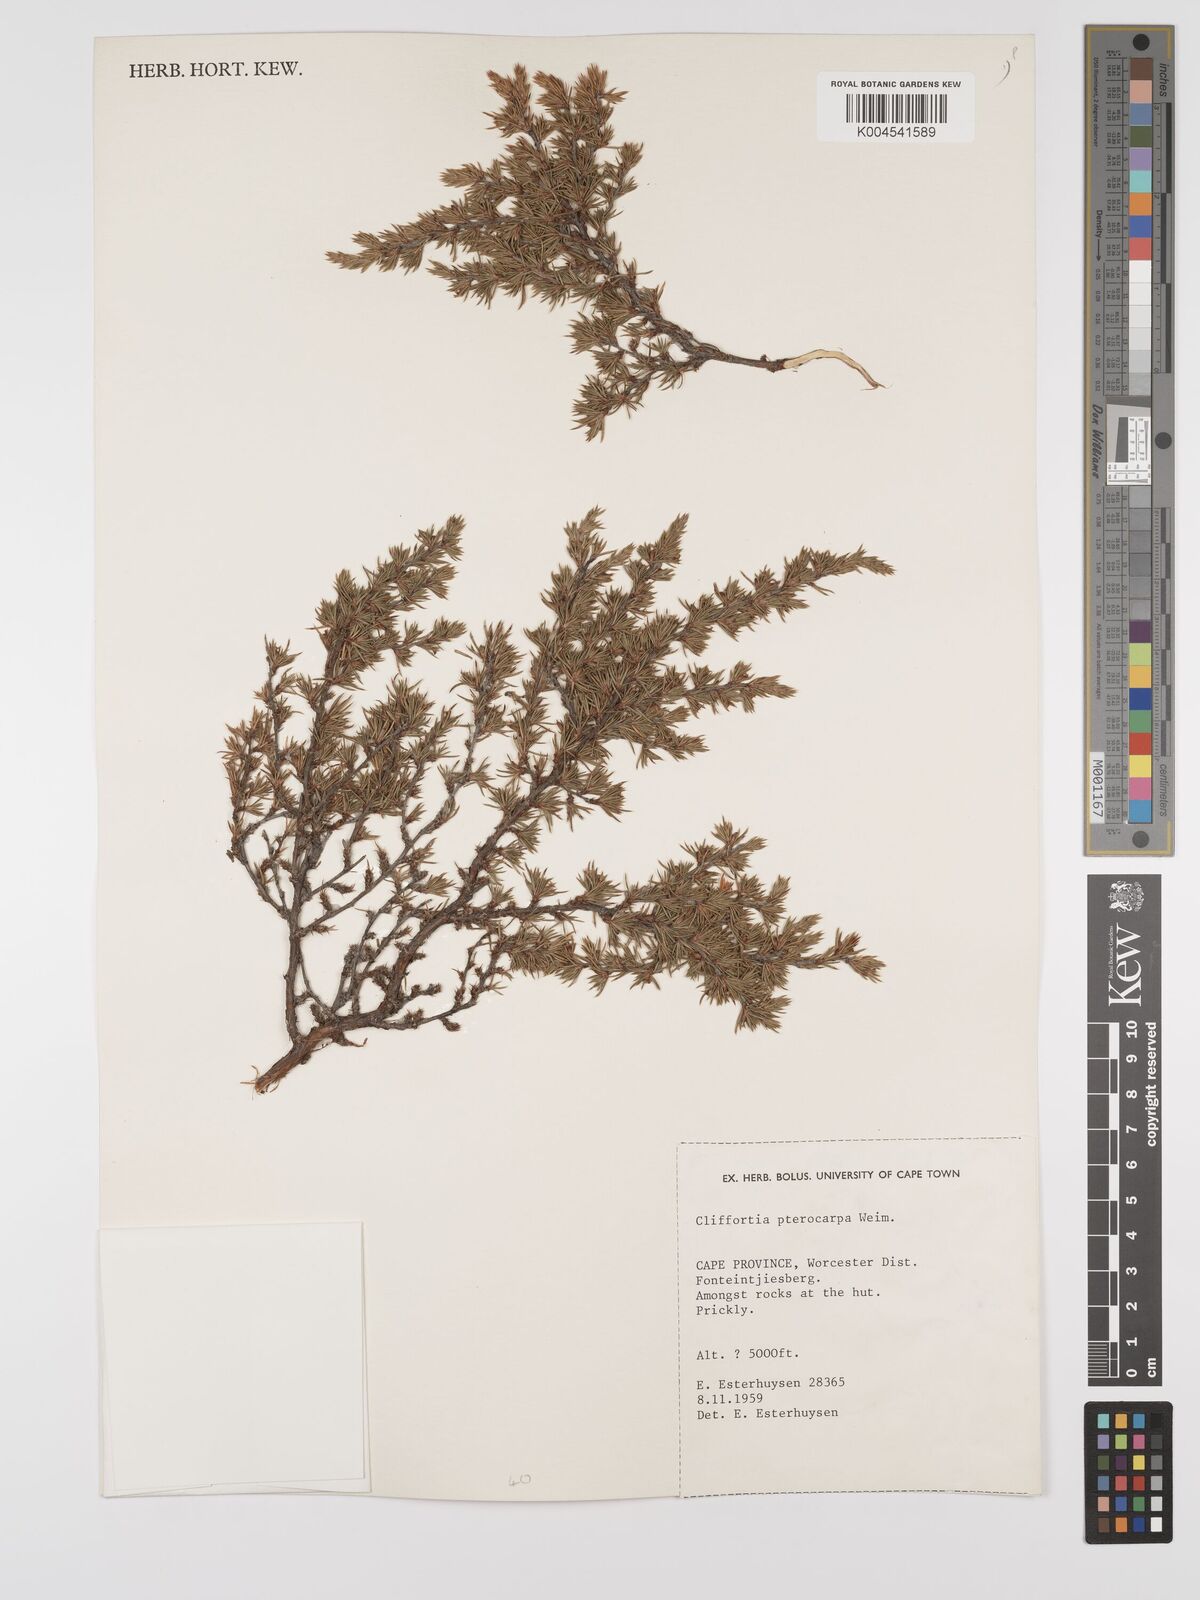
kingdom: Plantae
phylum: Tracheophyta
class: Magnoliopsida
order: Rosales
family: Rosaceae
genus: Cliffortia
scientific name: Cliffortia pterocarpa
